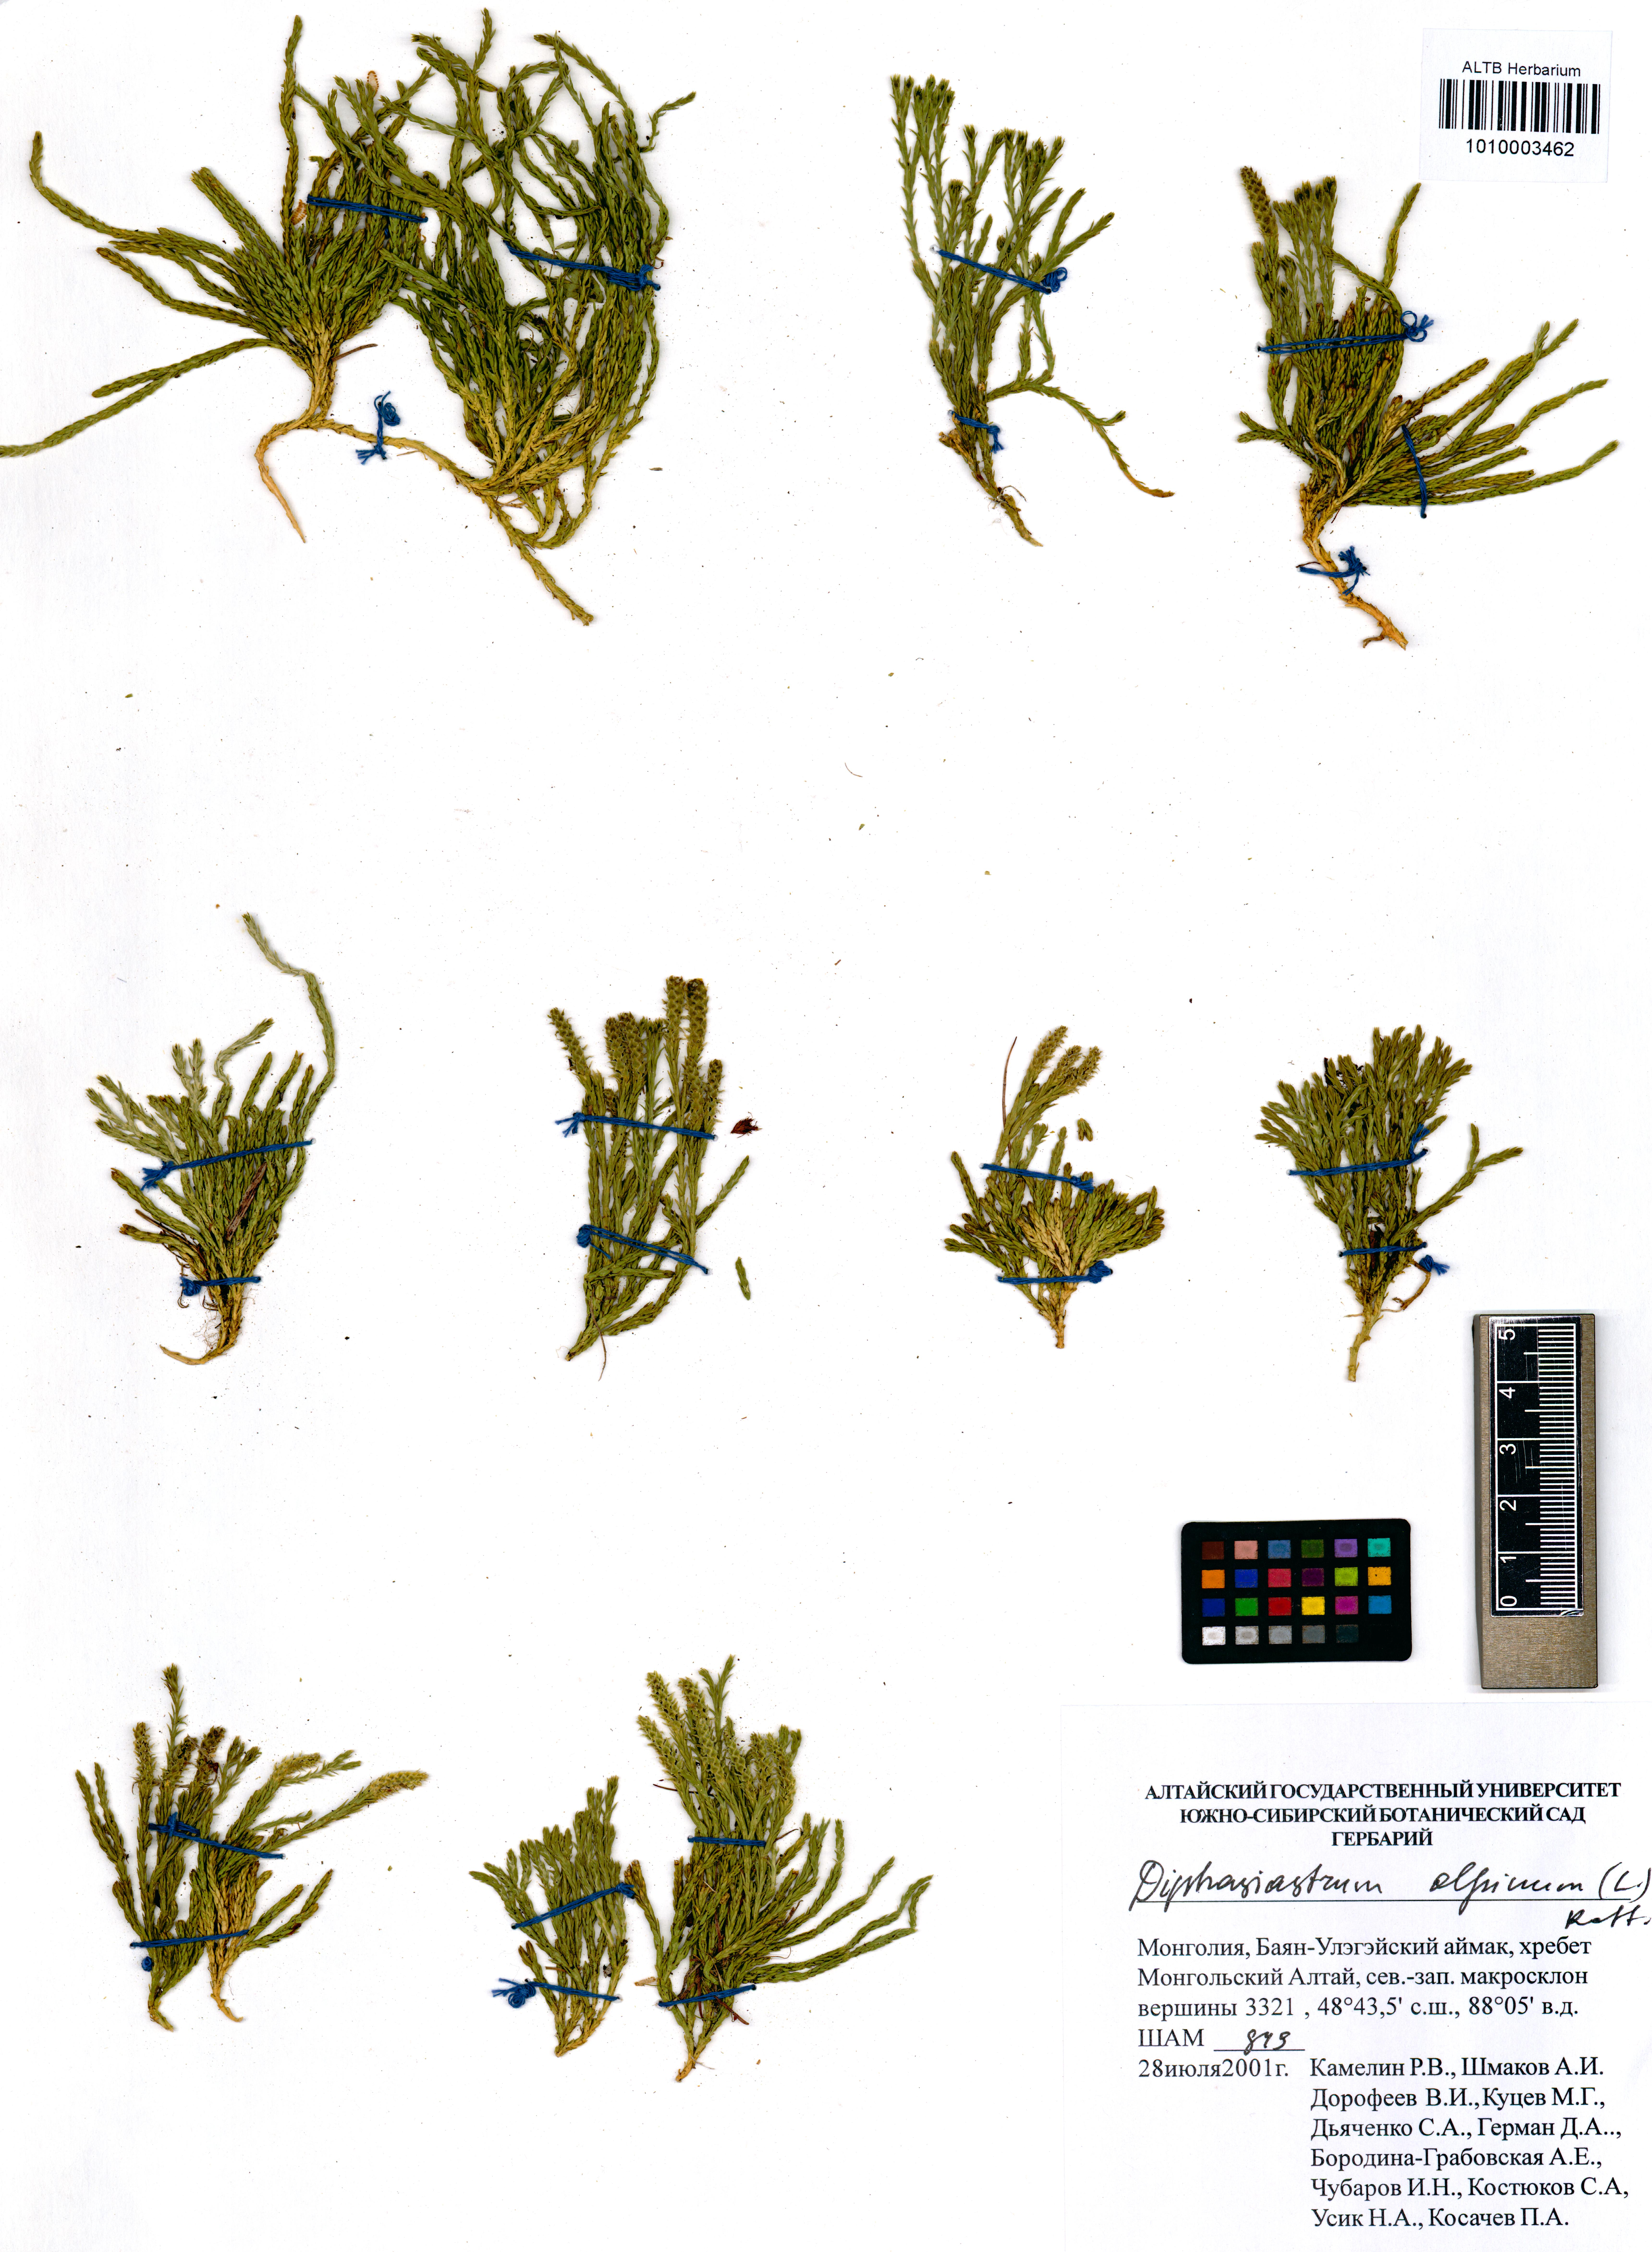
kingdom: Plantae
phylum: Tracheophyta
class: Lycopodiopsida
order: Lycopodiales
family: Lycopodiaceae
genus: Diphasiastrum
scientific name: Diphasiastrum alpinum
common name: Alpine clubmoss
